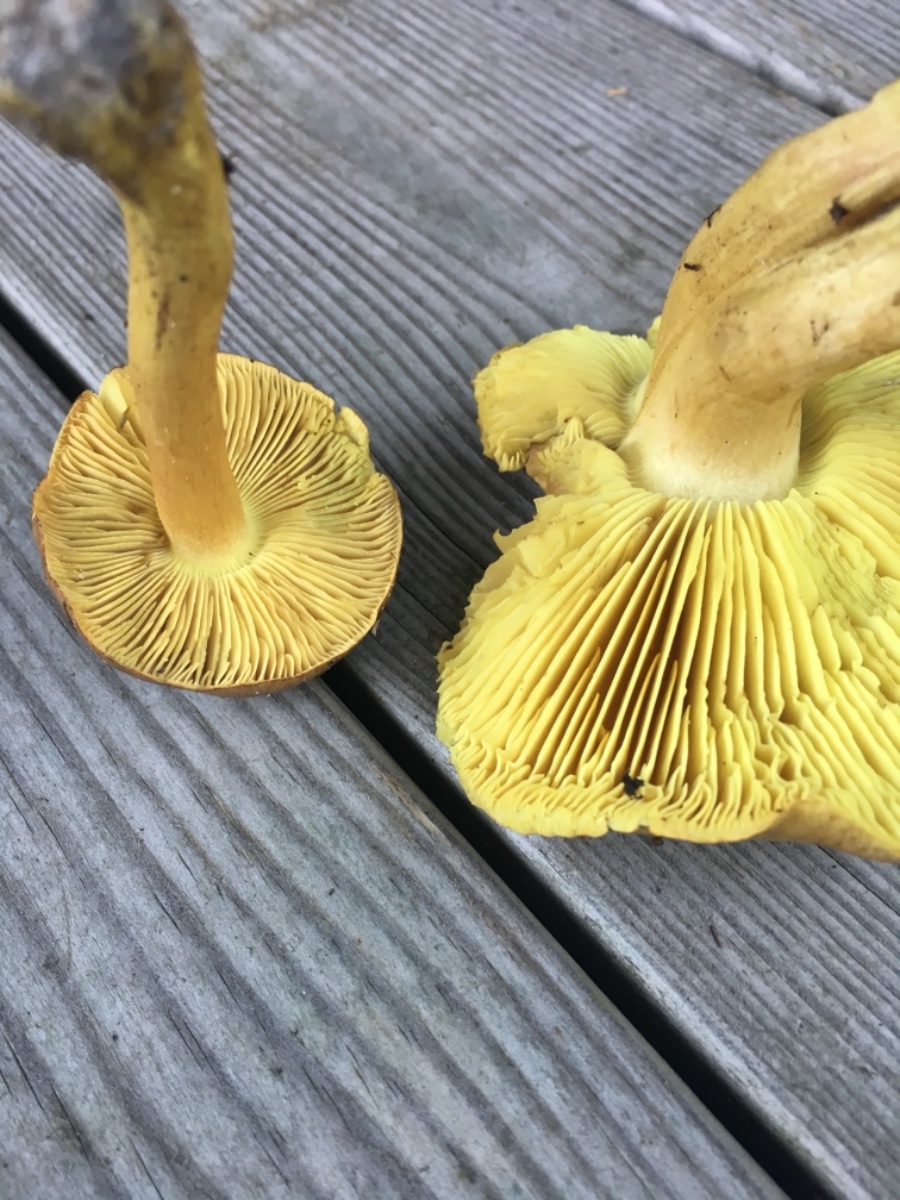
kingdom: Fungi
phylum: Basidiomycota
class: Agaricomycetes
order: Agaricales
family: Tricholomataceae
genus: Tricholoma
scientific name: Tricholoma equestre
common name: ægte ridderhat
